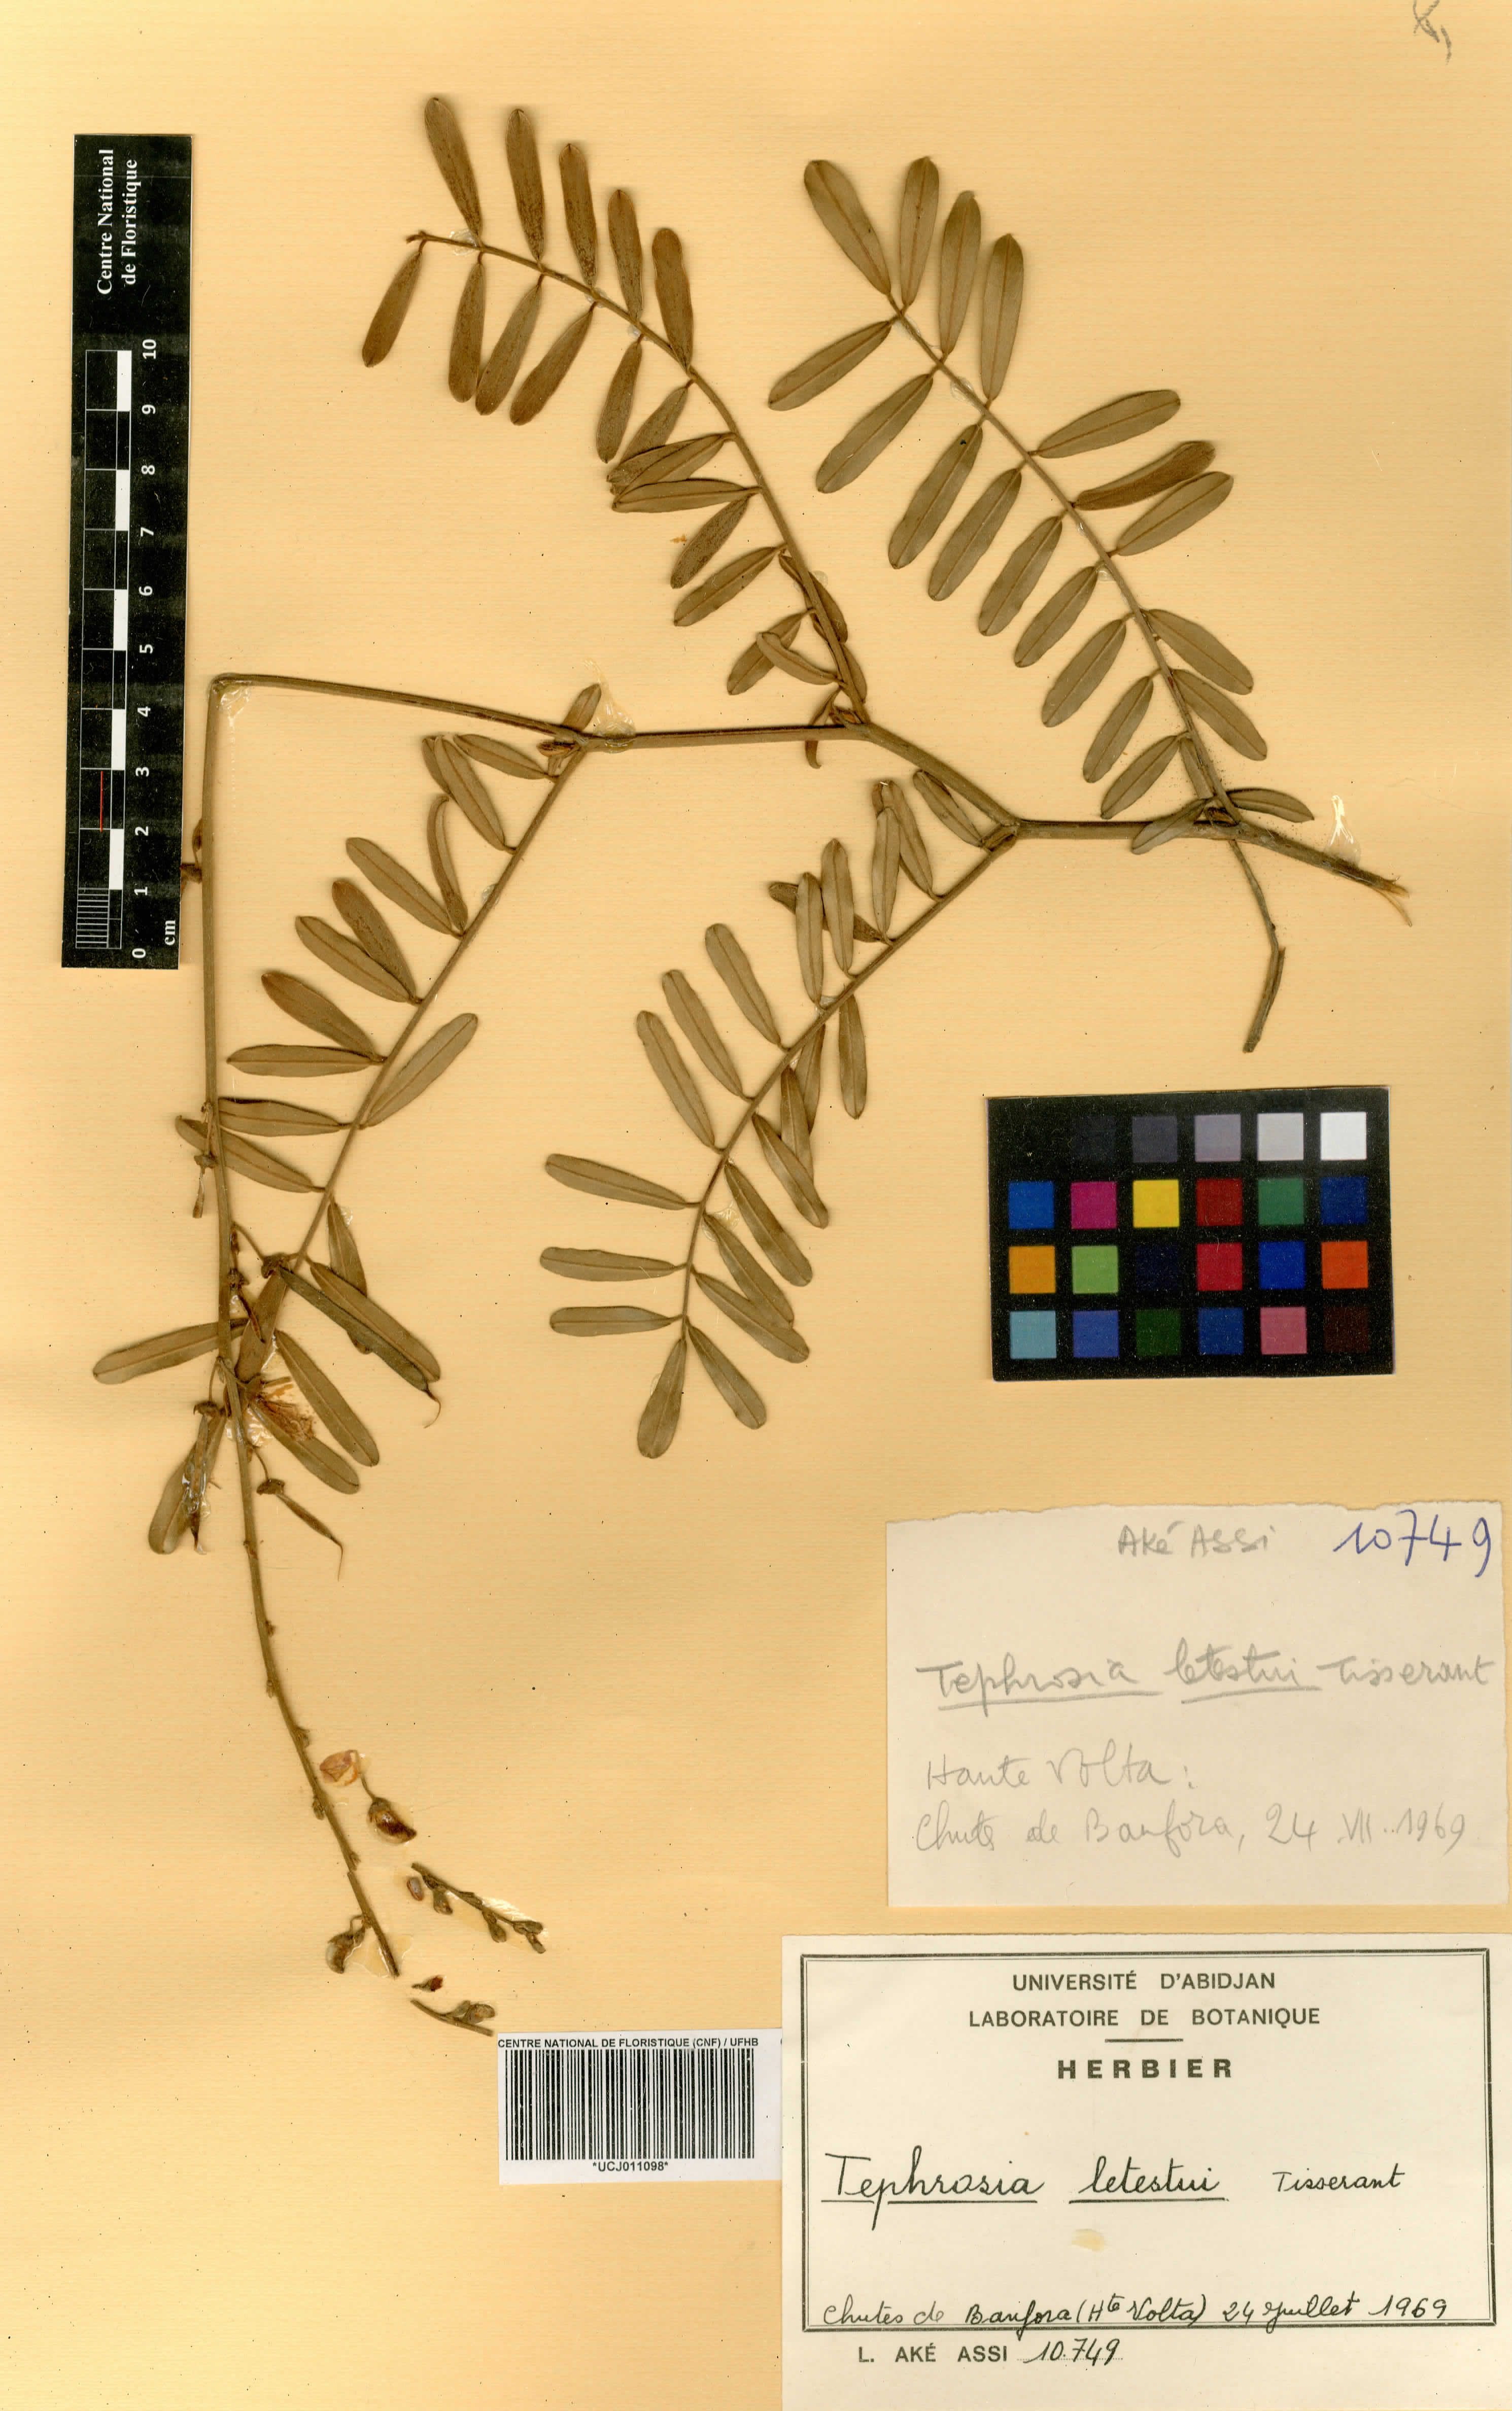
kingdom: Plantae
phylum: Tracheophyta
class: Magnoliopsida
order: Fabales
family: Fabaceae
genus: Tephrosia
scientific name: Tephrosia letestui
